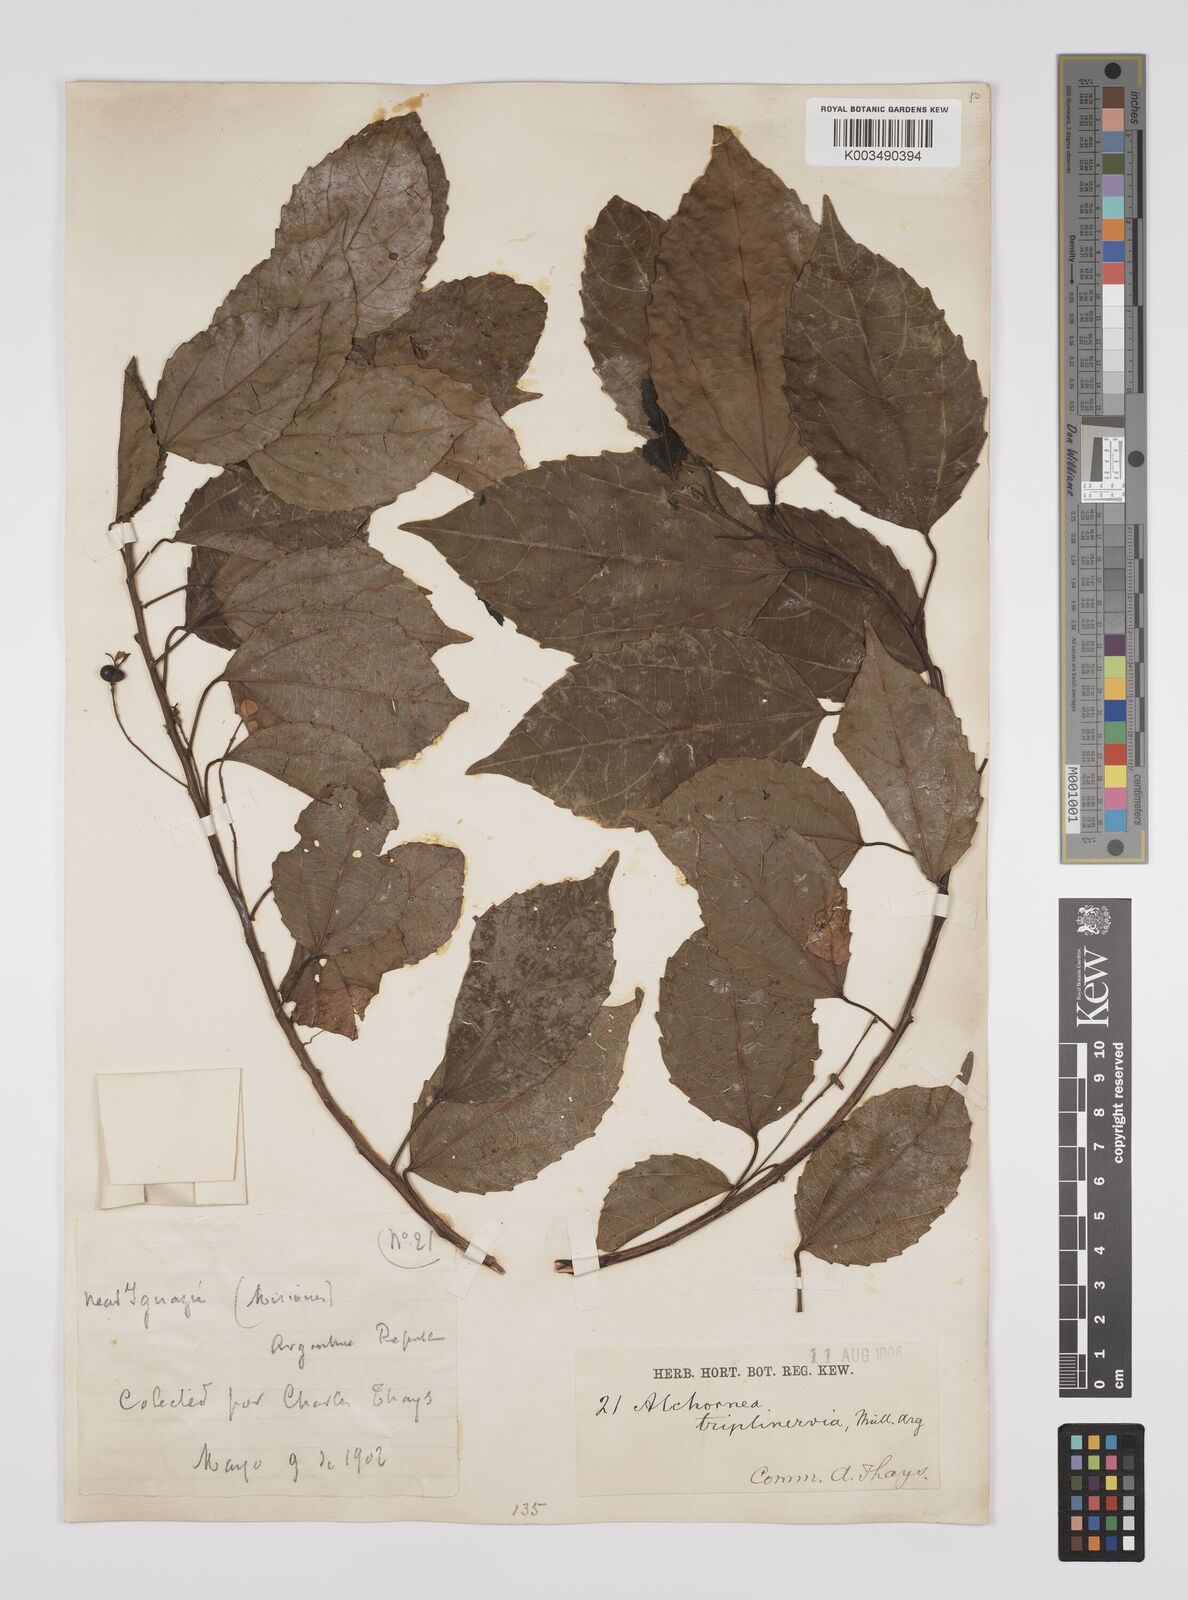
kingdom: Plantae
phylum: Tracheophyta
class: Magnoliopsida
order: Malpighiales
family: Euphorbiaceae
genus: Alchornea
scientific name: Alchornea triplinervia
